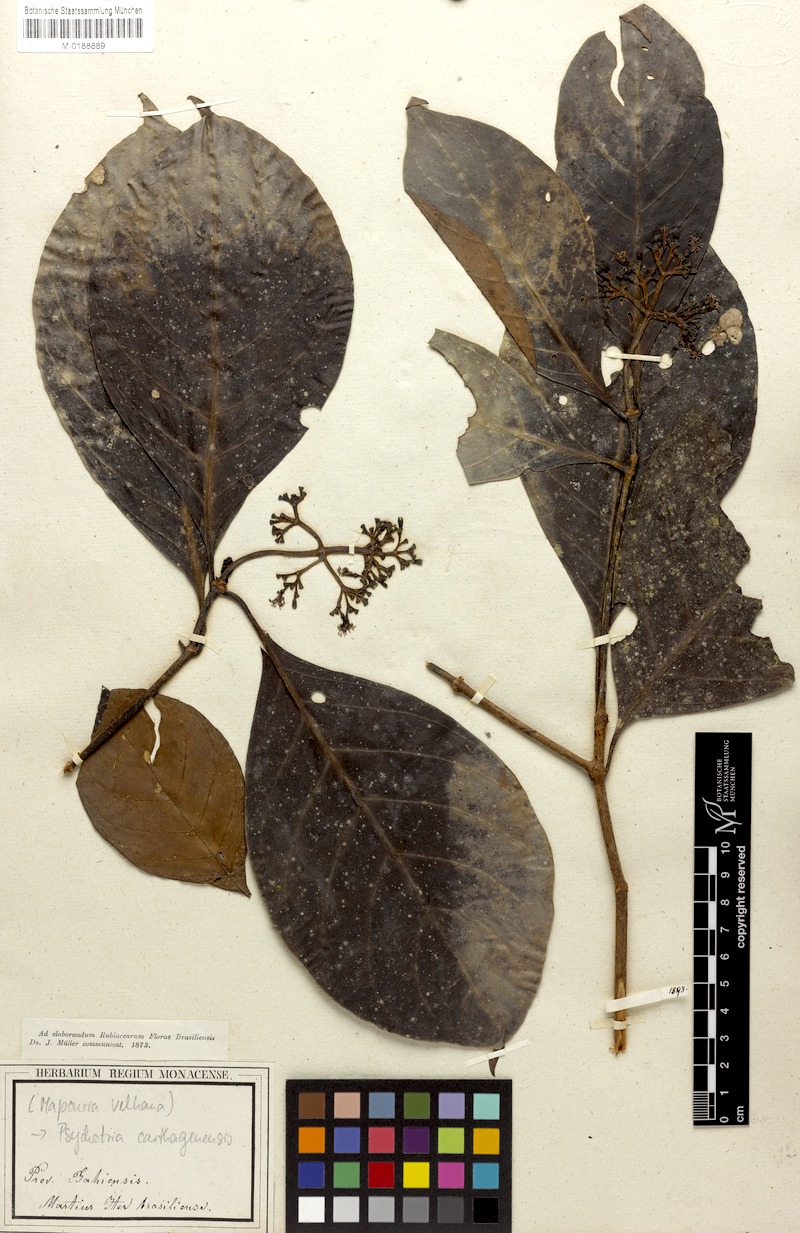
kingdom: Plantae
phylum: Tracheophyta
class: Magnoliopsida
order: Gentianales
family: Rubiaceae
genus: Psychotria
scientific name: Psychotria carthagenensis
